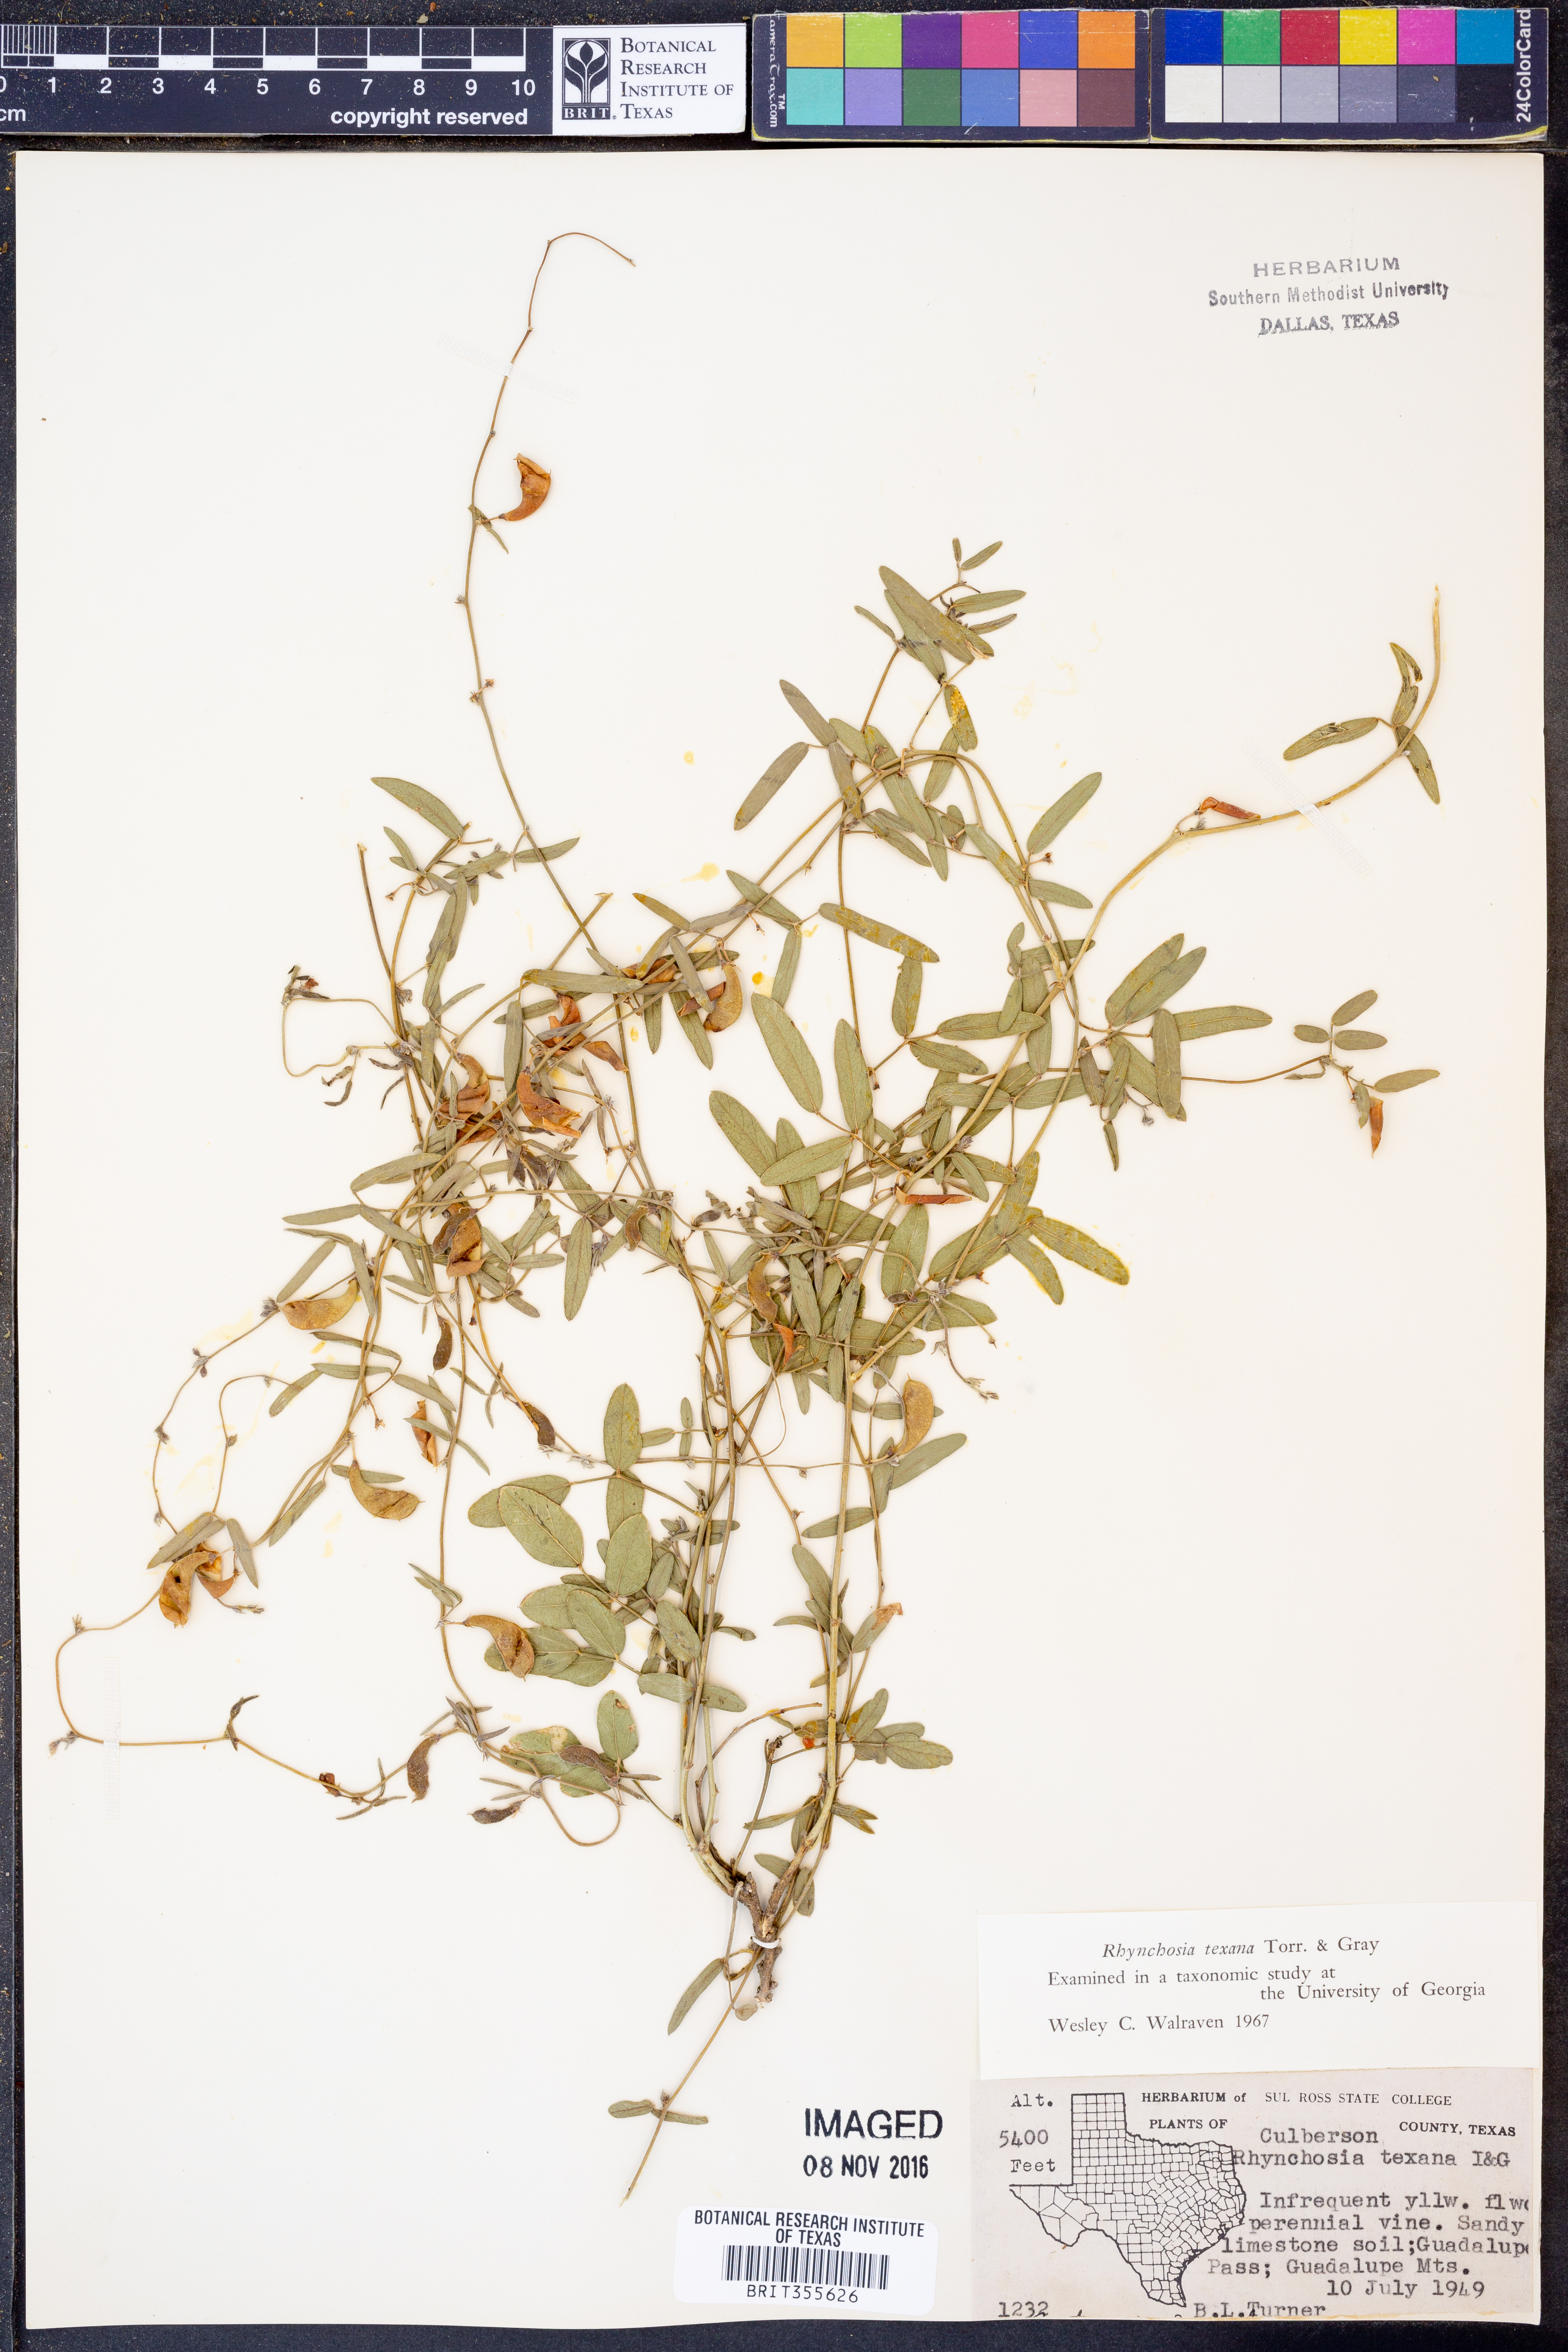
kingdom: Plantae
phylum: Tracheophyta
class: Magnoliopsida
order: Fabales
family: Fabaceae
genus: Rhynchosia
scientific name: Rhynchosia senna
